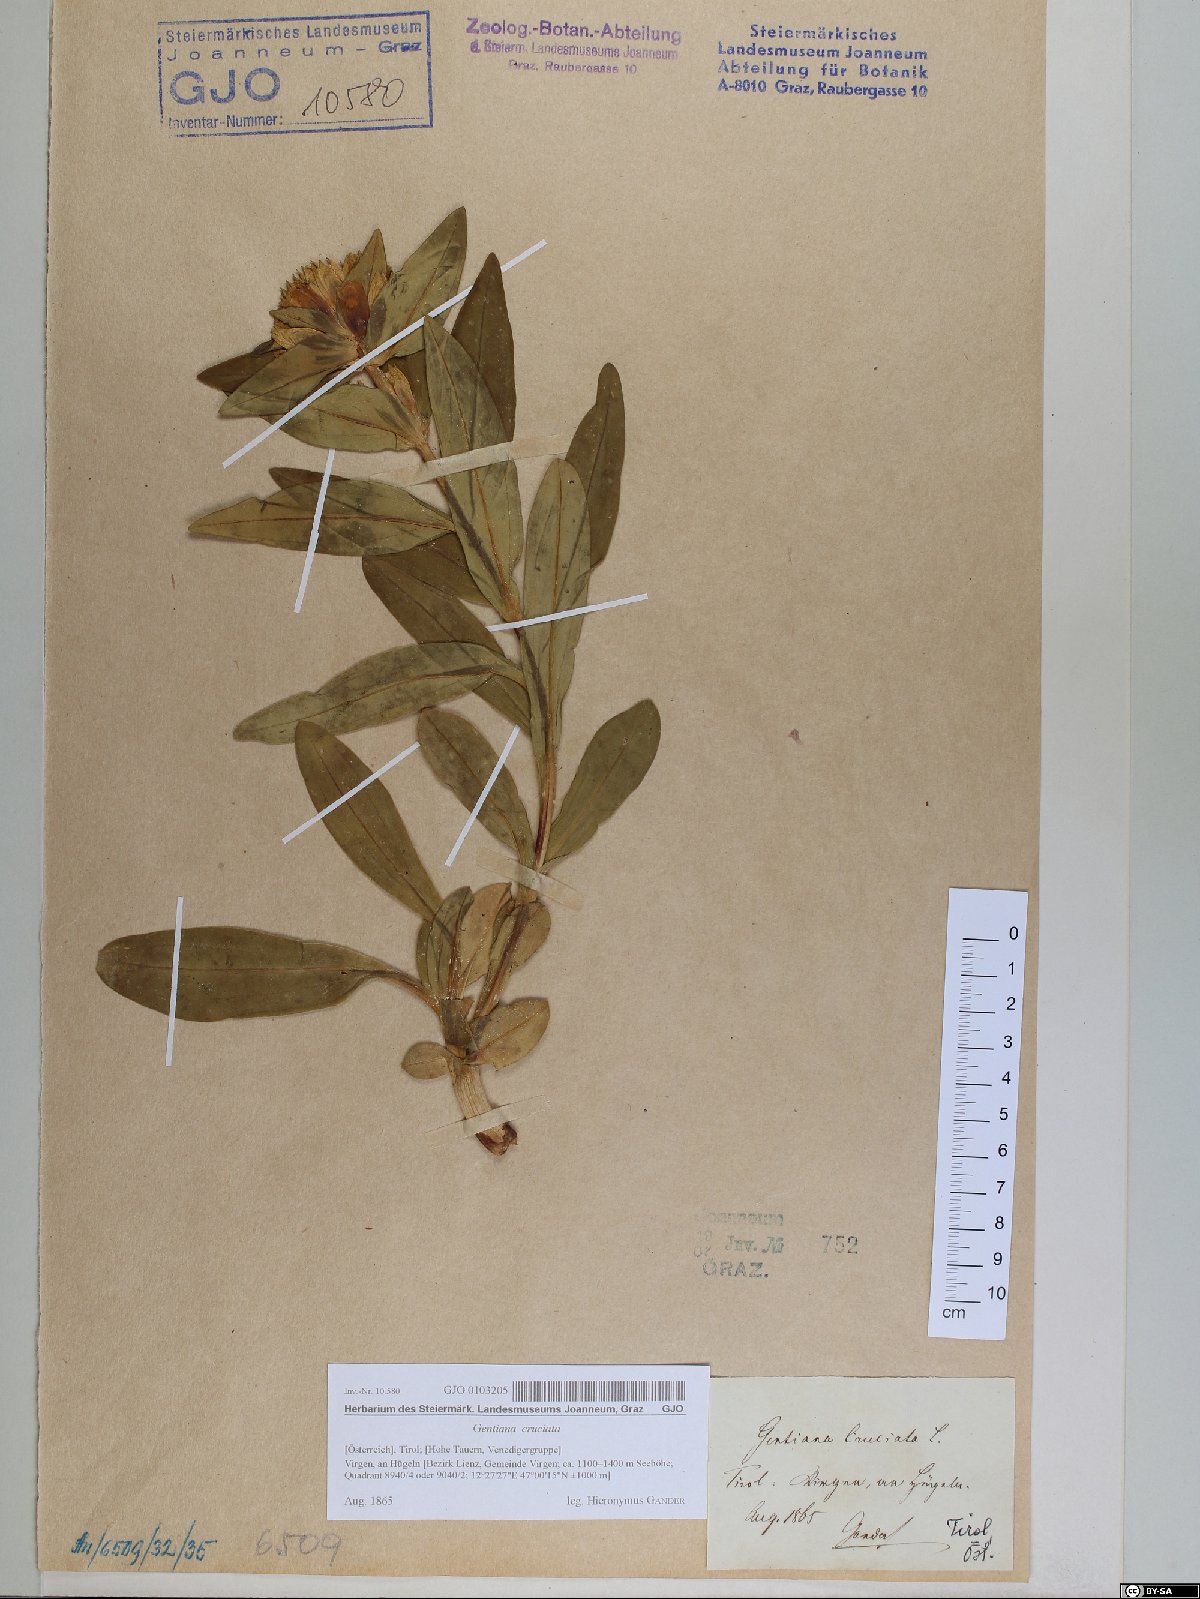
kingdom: Plantae
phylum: Tracheophyta
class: Magnoliopsida
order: Gentianales
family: Gentianaceae
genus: Gentiana
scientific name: Gentiana cruciata
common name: Cross gentian
